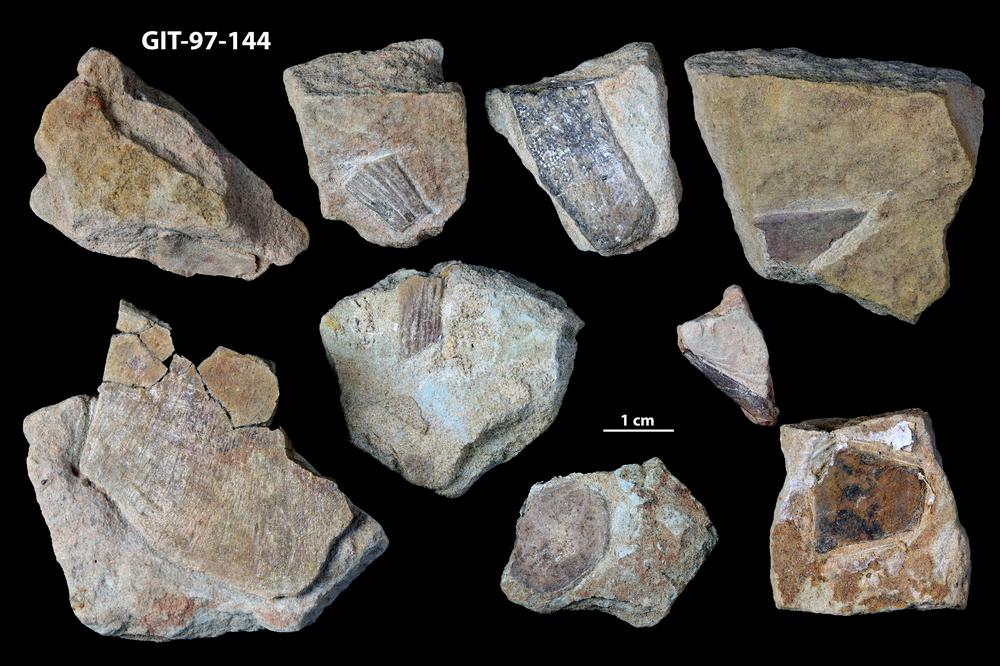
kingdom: Animalia
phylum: Chordata
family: Holonematidae
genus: Holonema
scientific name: Holonema
